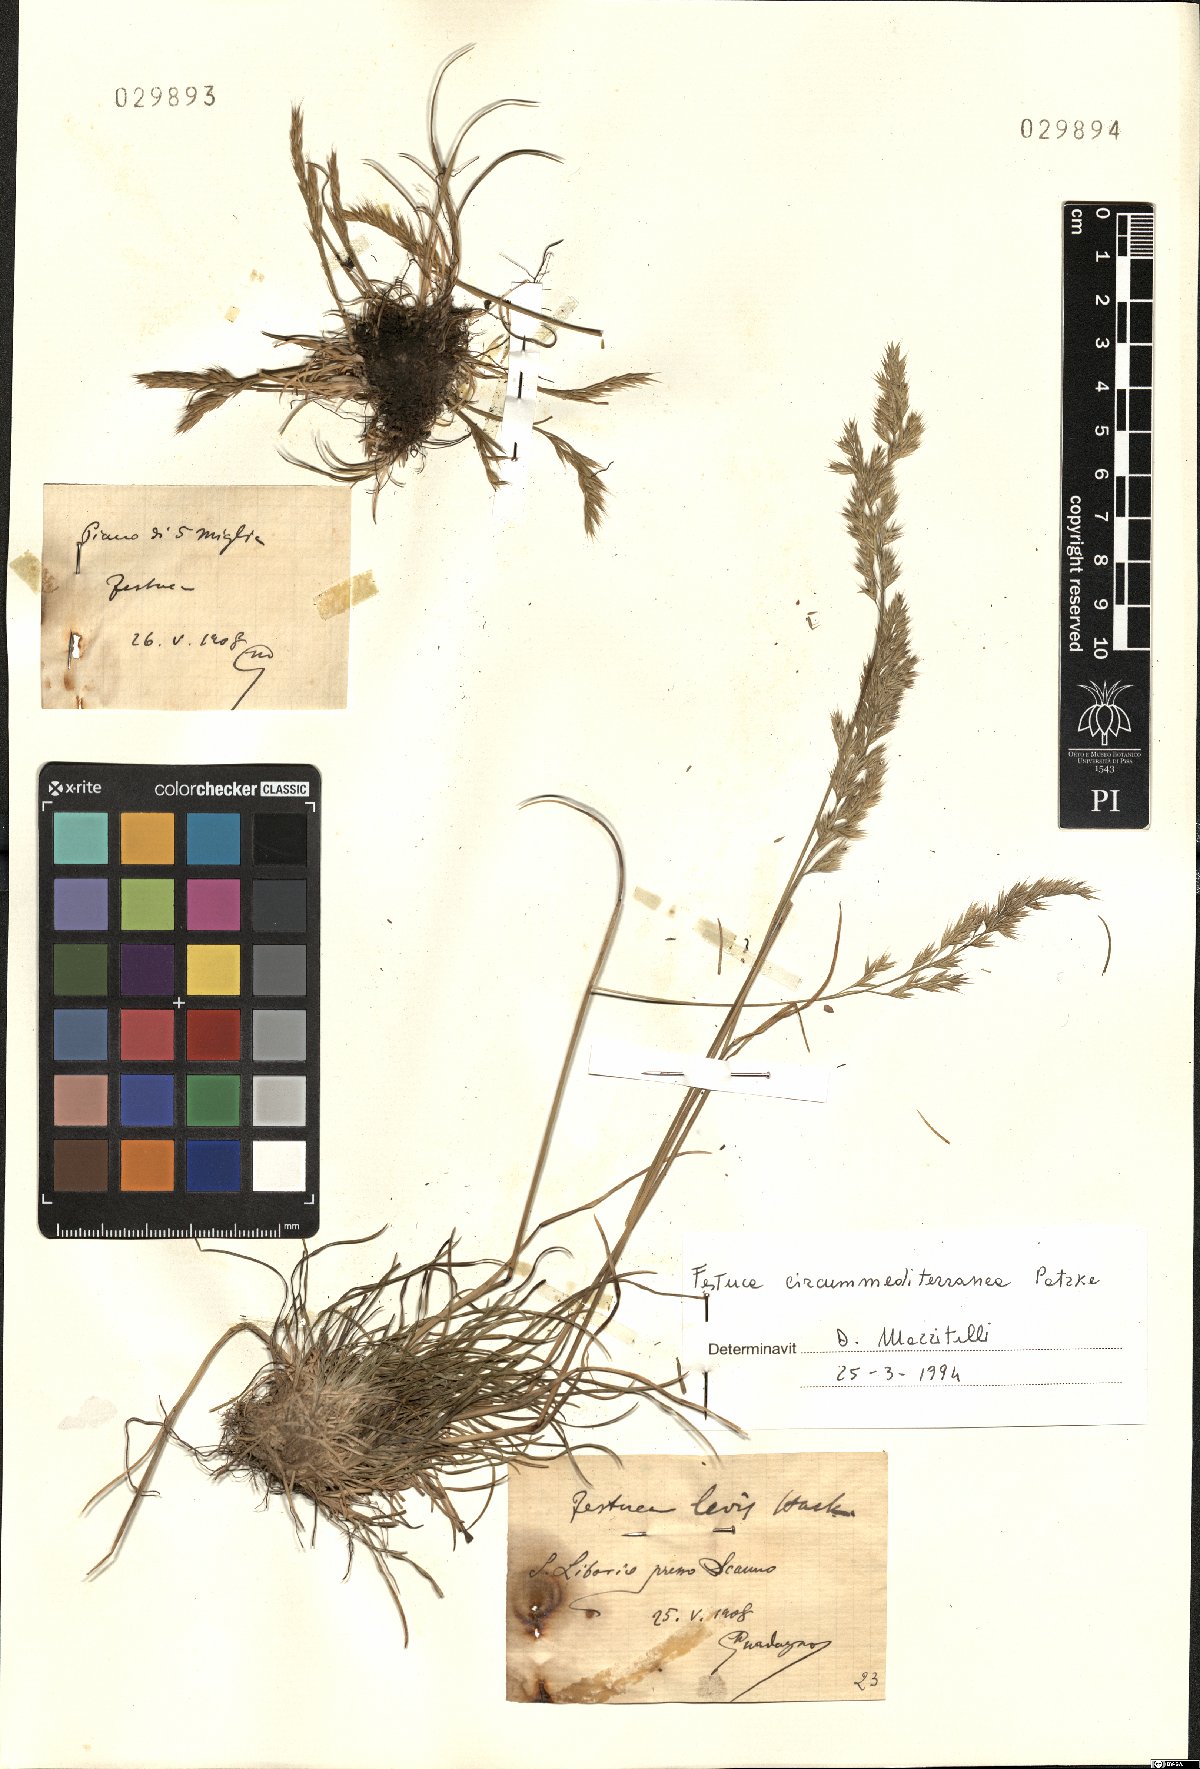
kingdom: Plantae
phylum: Tracheophyta
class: Liliopsida
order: Poales
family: Poaceae
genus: Festuca
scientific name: Festuca circummediterranea
